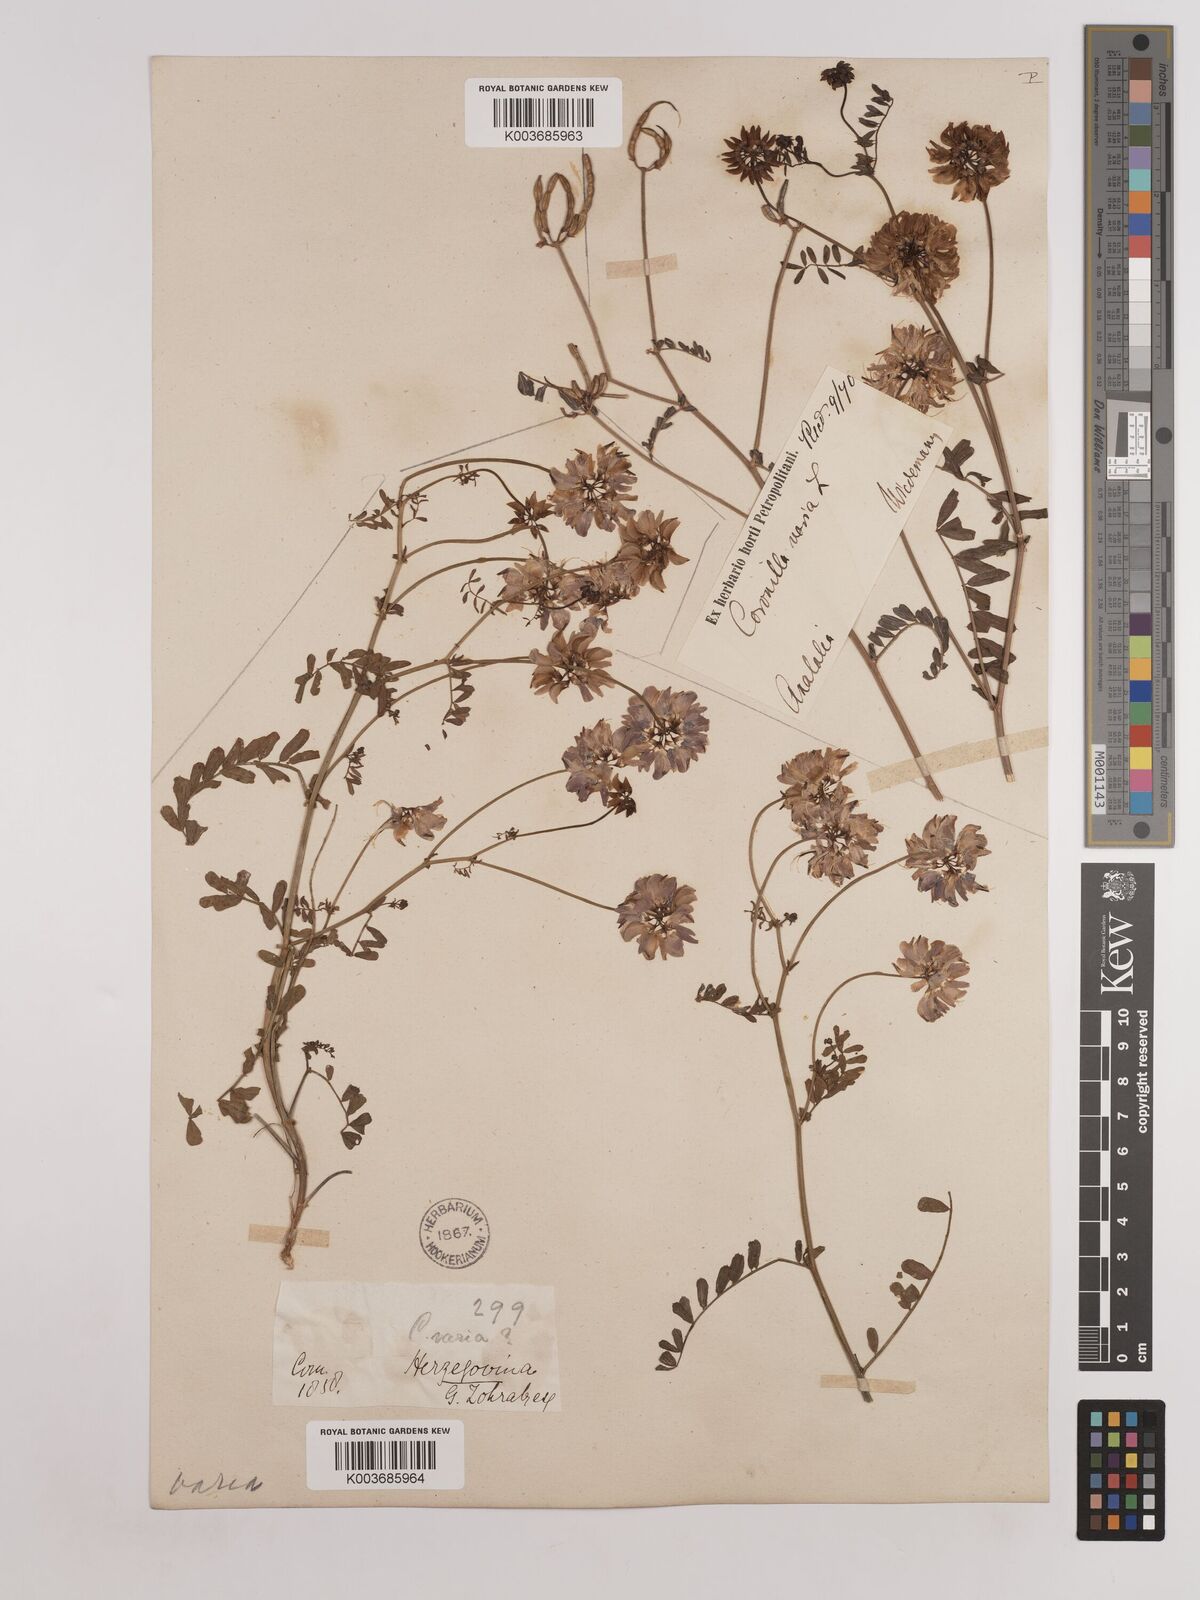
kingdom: Plantae
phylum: Tracheophyta
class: Magnoliopsida
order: Fabales
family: Fabaceae
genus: Coronilla
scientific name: Coronilla varia
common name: Crownvetch
